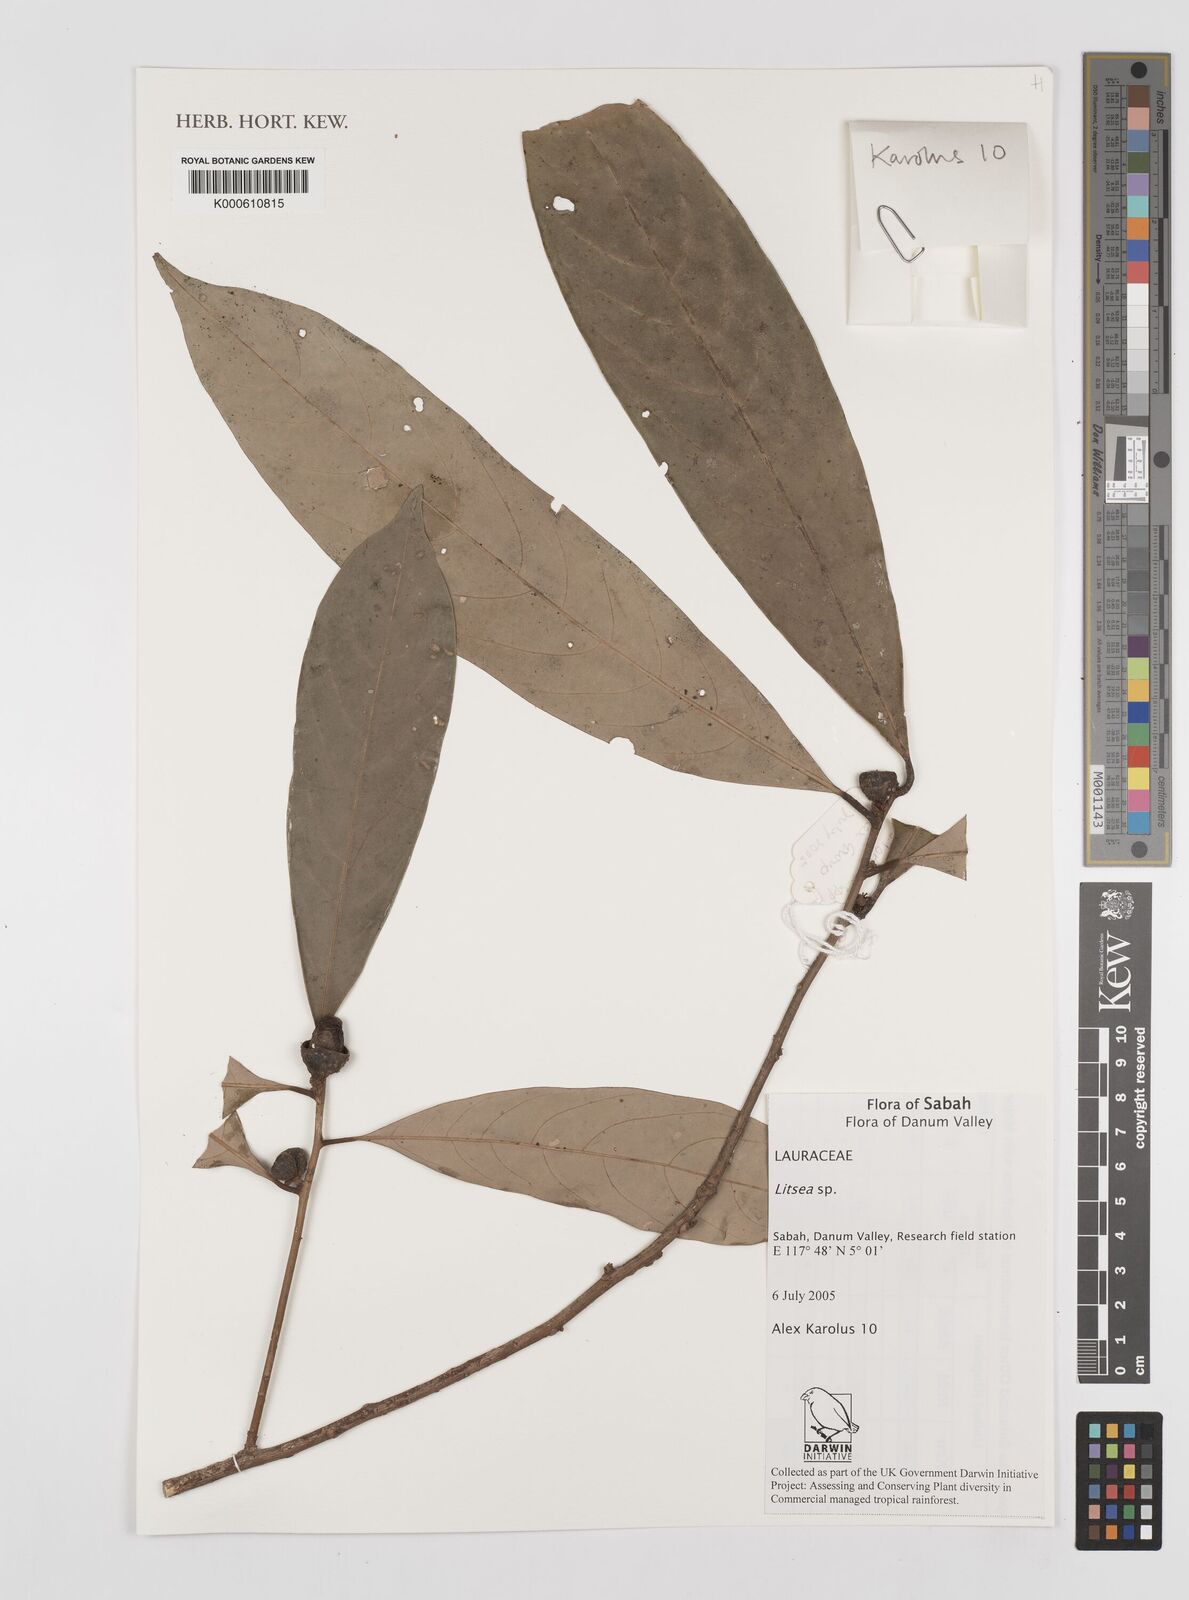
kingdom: Plantae
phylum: Tracheophyta
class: Magnoliopsida
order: Laurales
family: Lauraceae
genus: Litsea
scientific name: Litsea
